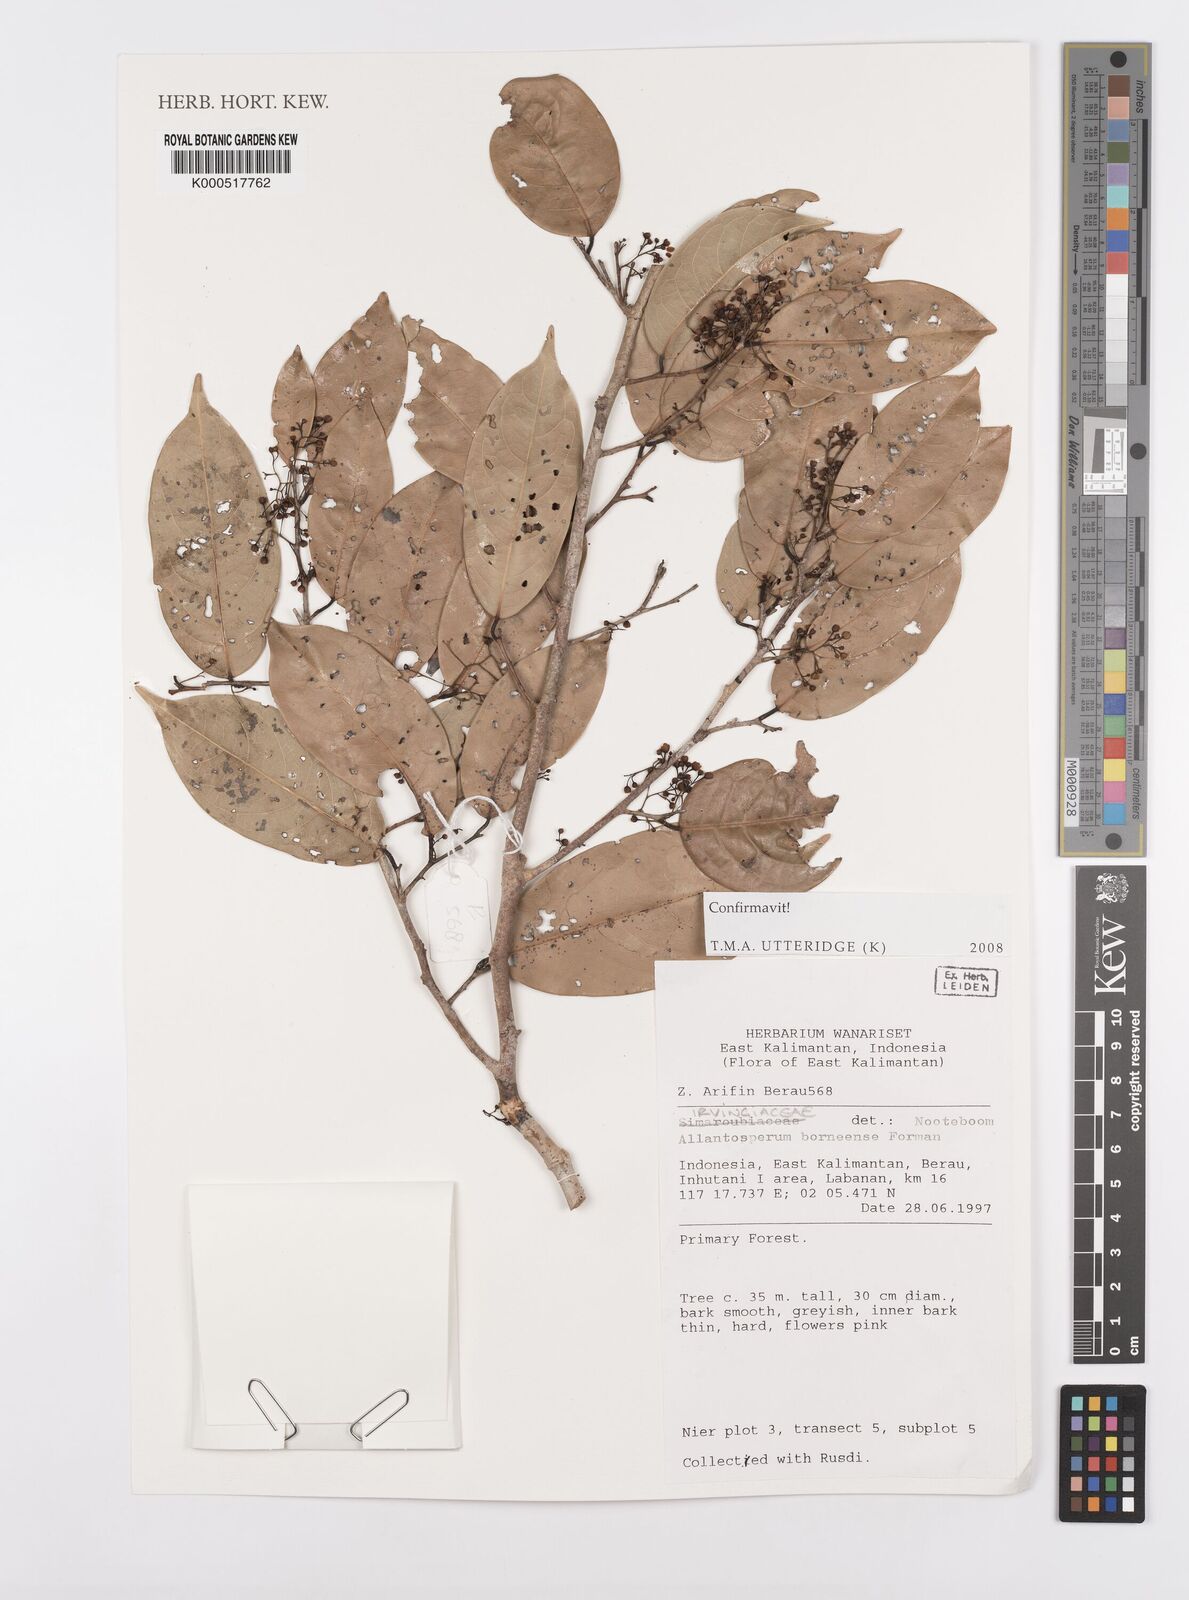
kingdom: Plantae
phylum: Tracheophyta
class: Magnoliopsida
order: Malpighiales
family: Ixonanthaceae
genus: Allantospermum
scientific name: Allantospermum borneense
